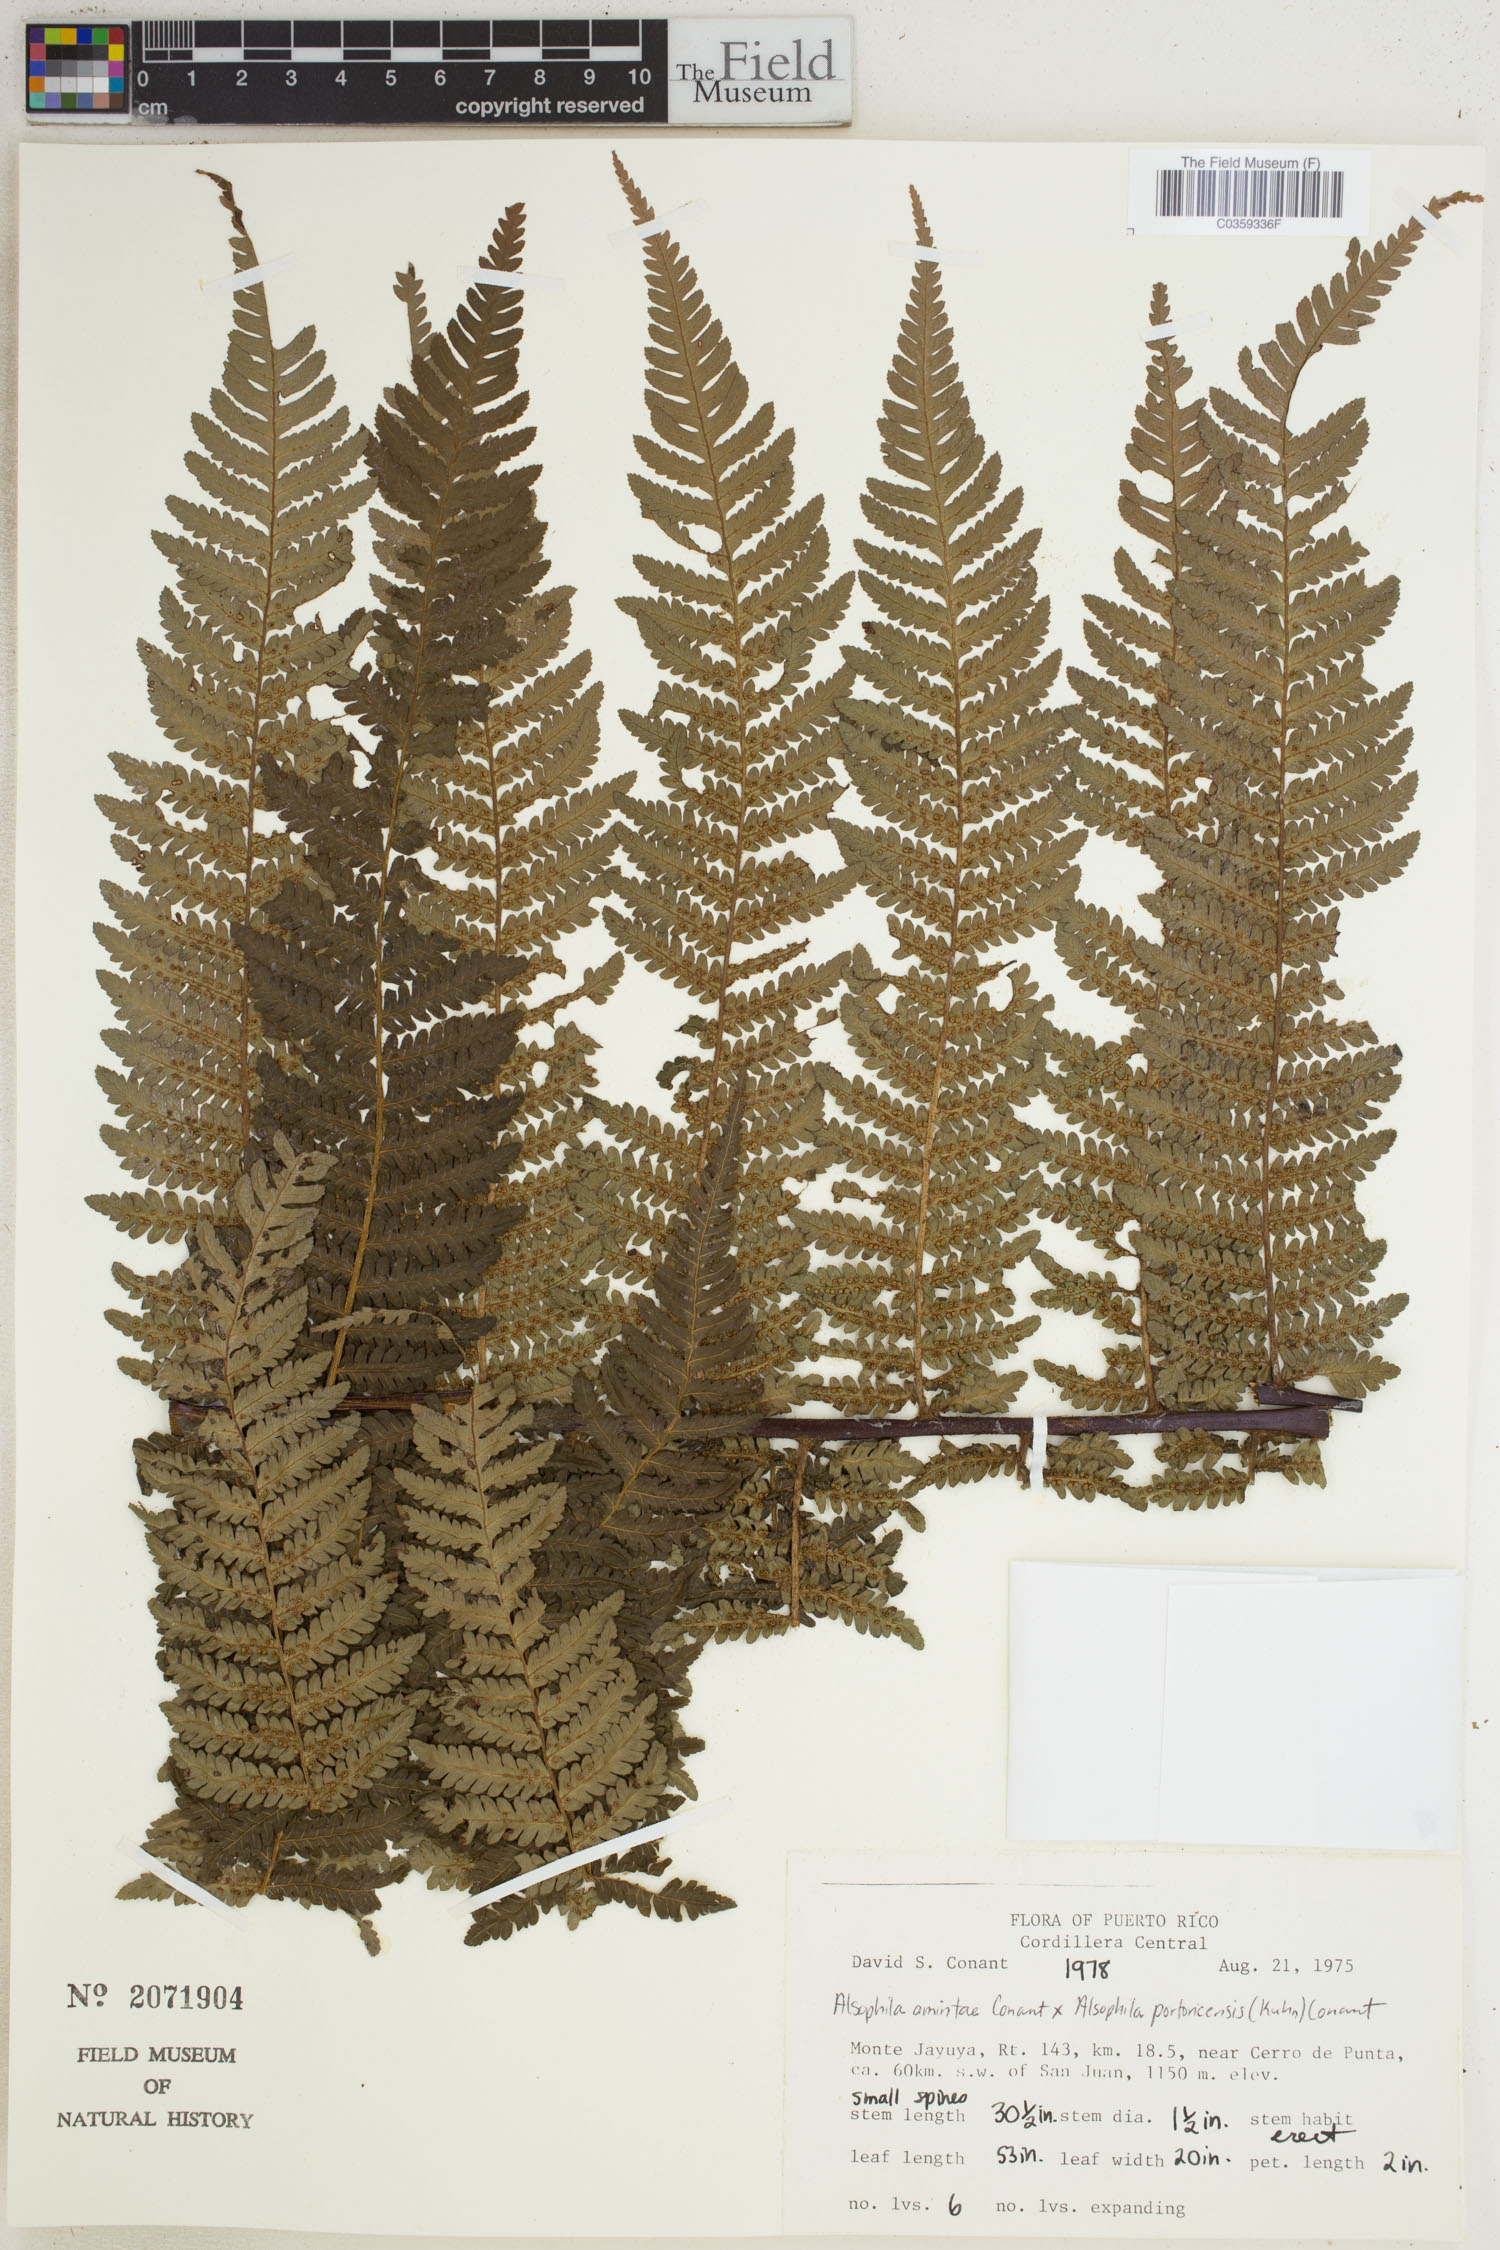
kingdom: Plantae
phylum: Tracheophyta
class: Polypodiopsida
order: Cyatheales
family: Cyatheaceae
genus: Alsophila
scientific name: Alsophila
